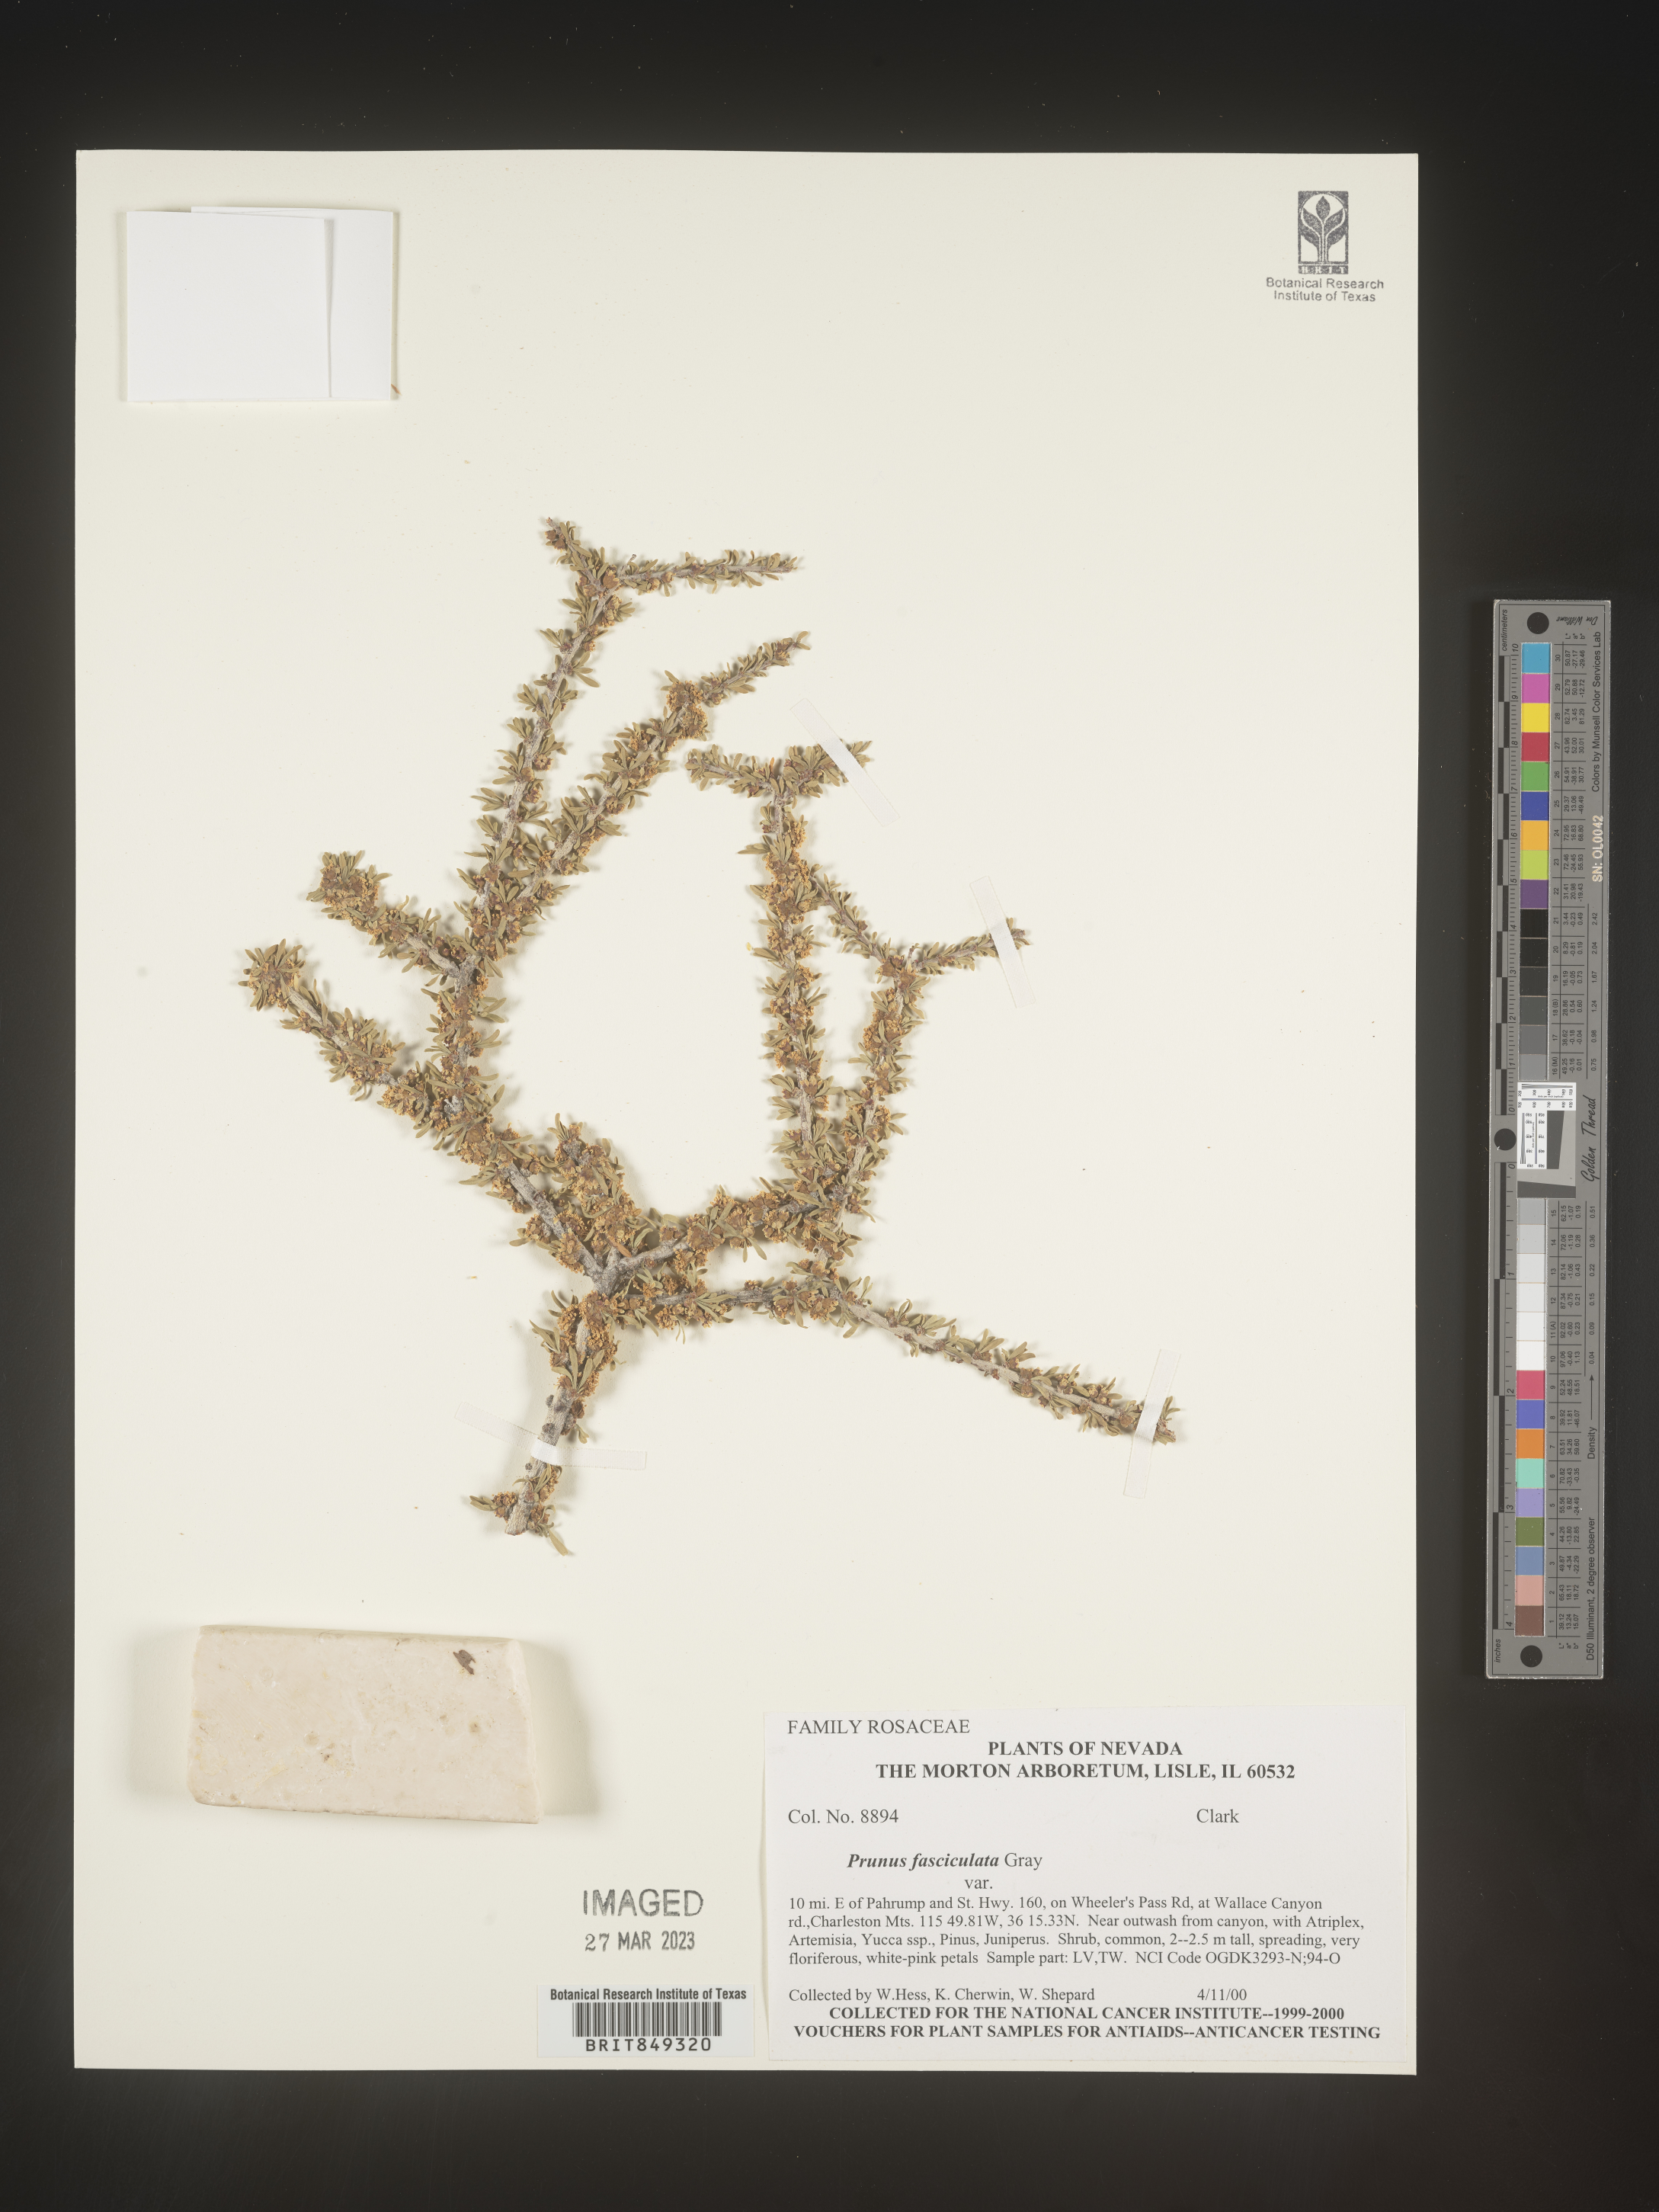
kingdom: Plantae
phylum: Tracheophyta
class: Magnoliopsida
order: Rosales
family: Rosaceae
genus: Prunus
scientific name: Prunus
